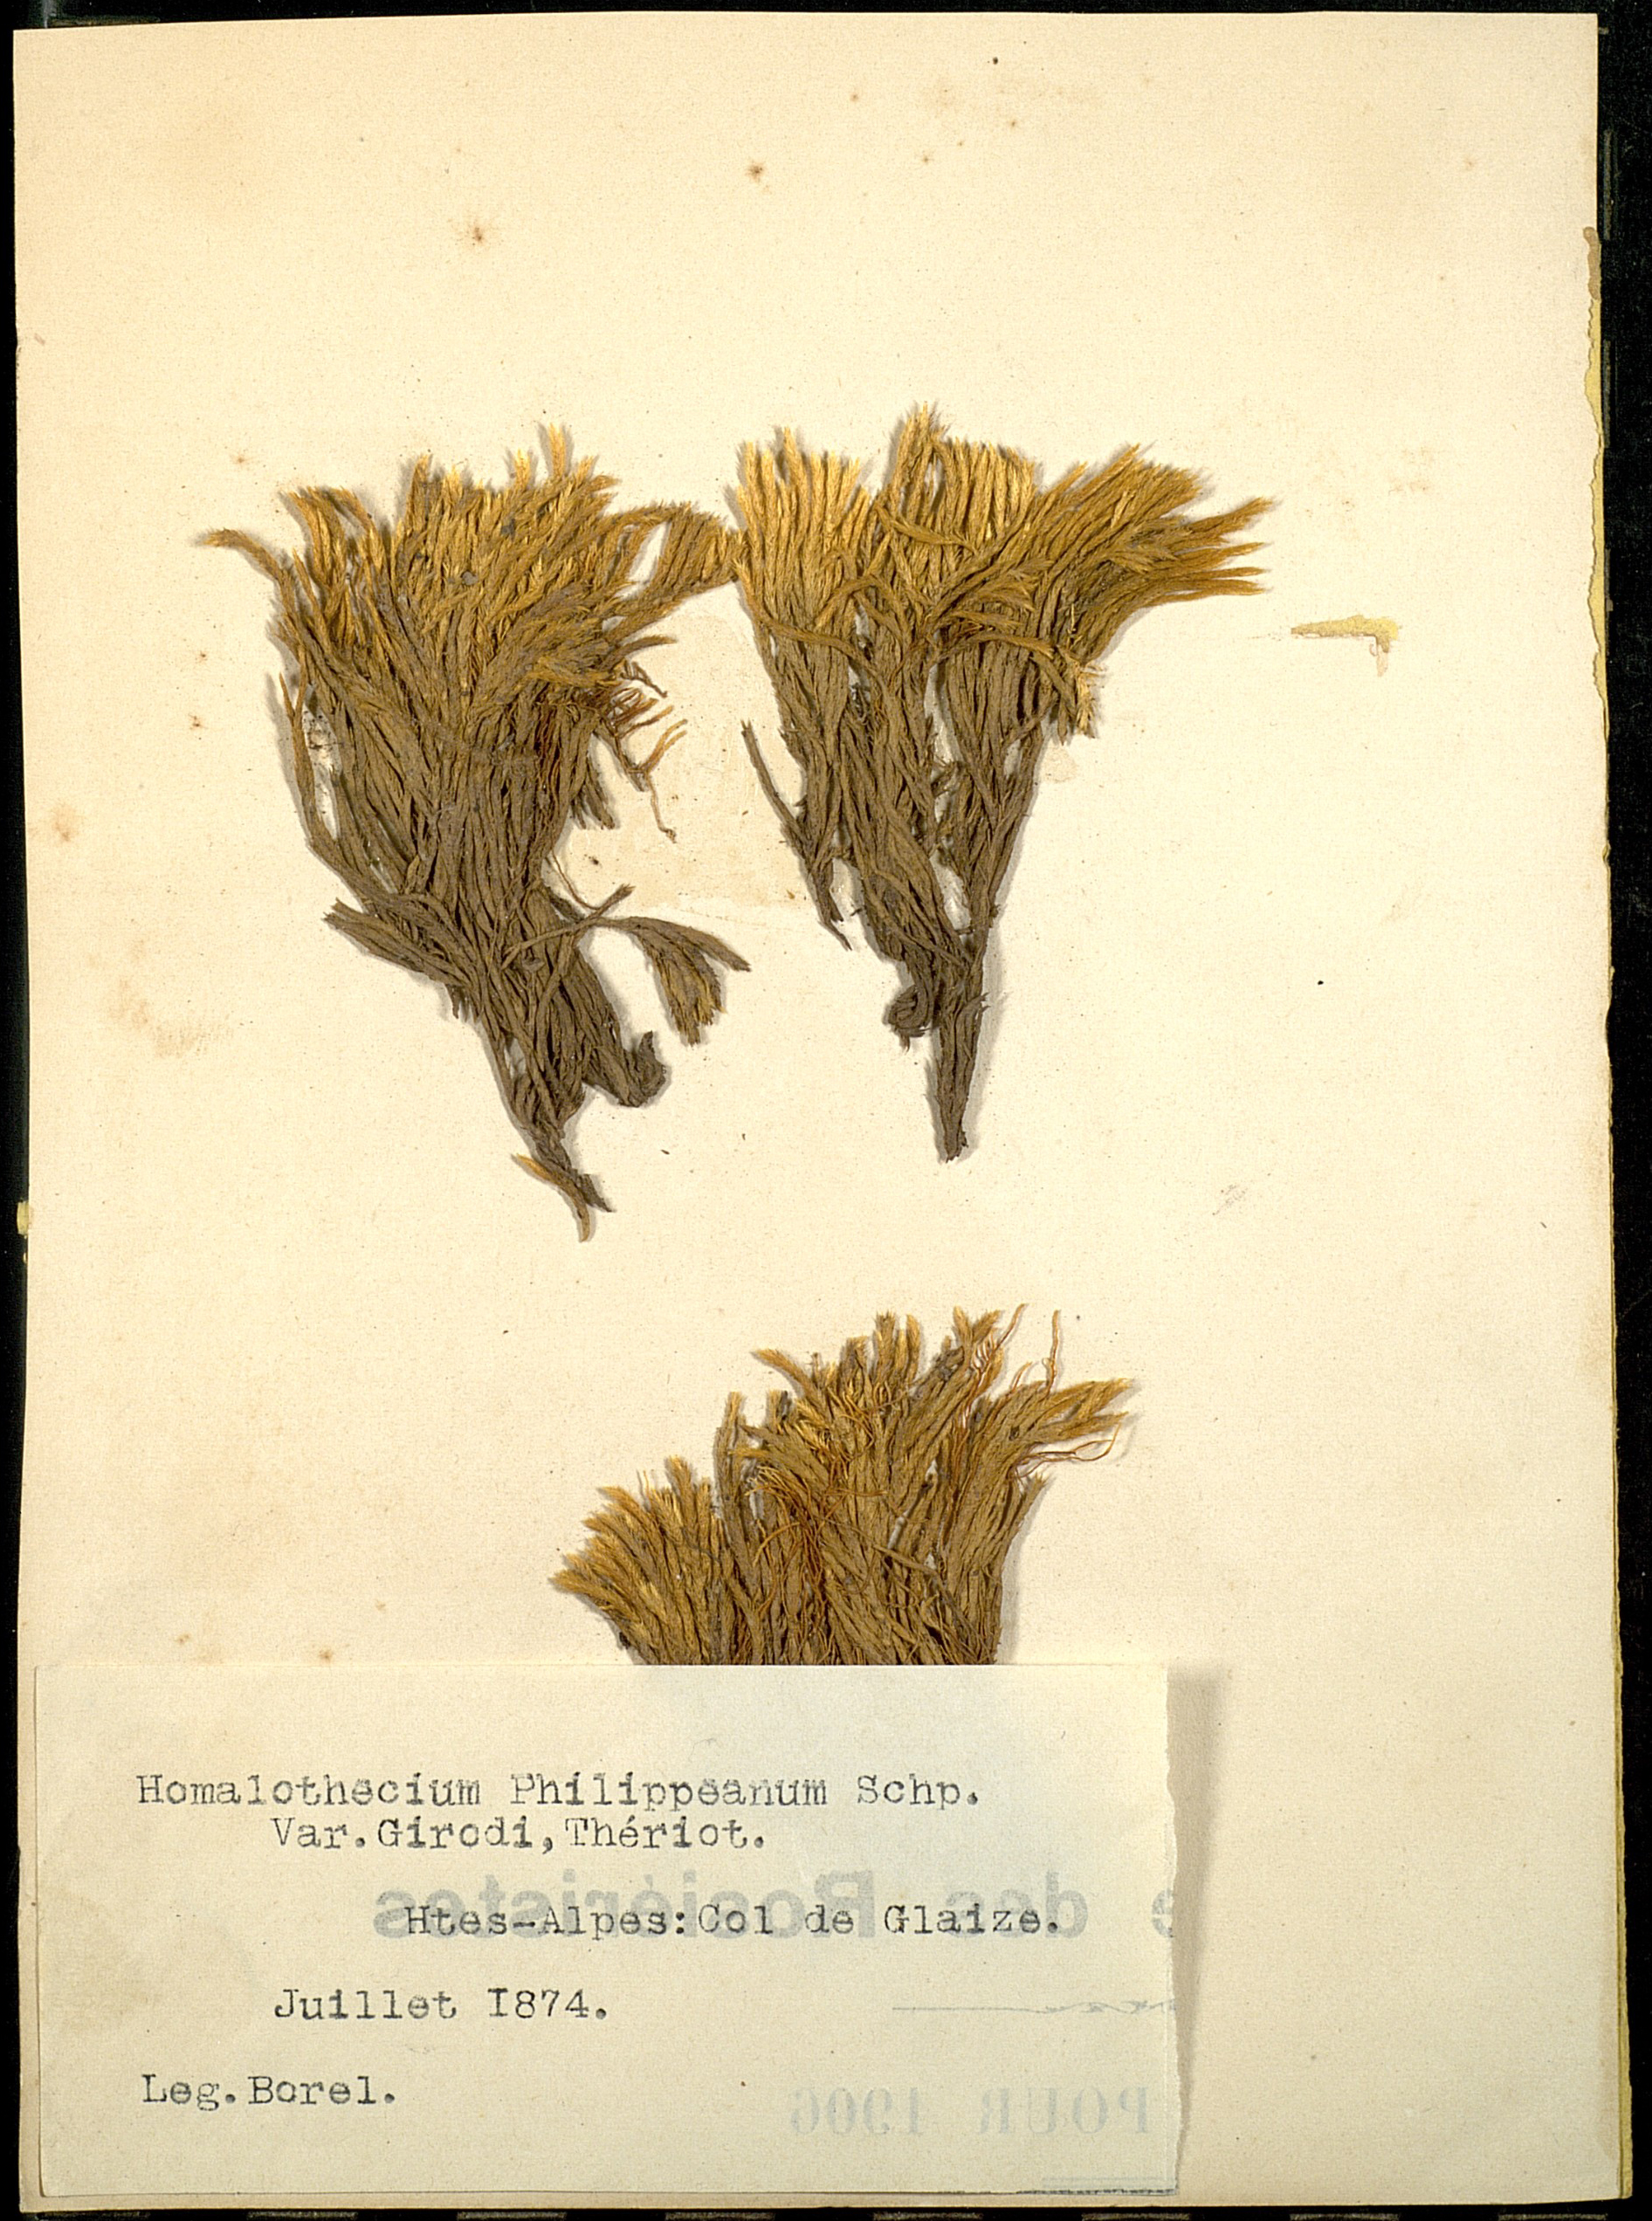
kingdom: Plantae
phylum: Bryophyta
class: Bryopsida
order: Hypnales
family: Brachytheciaceae
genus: Homalothecium
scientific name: Homalothecium philippeanum
